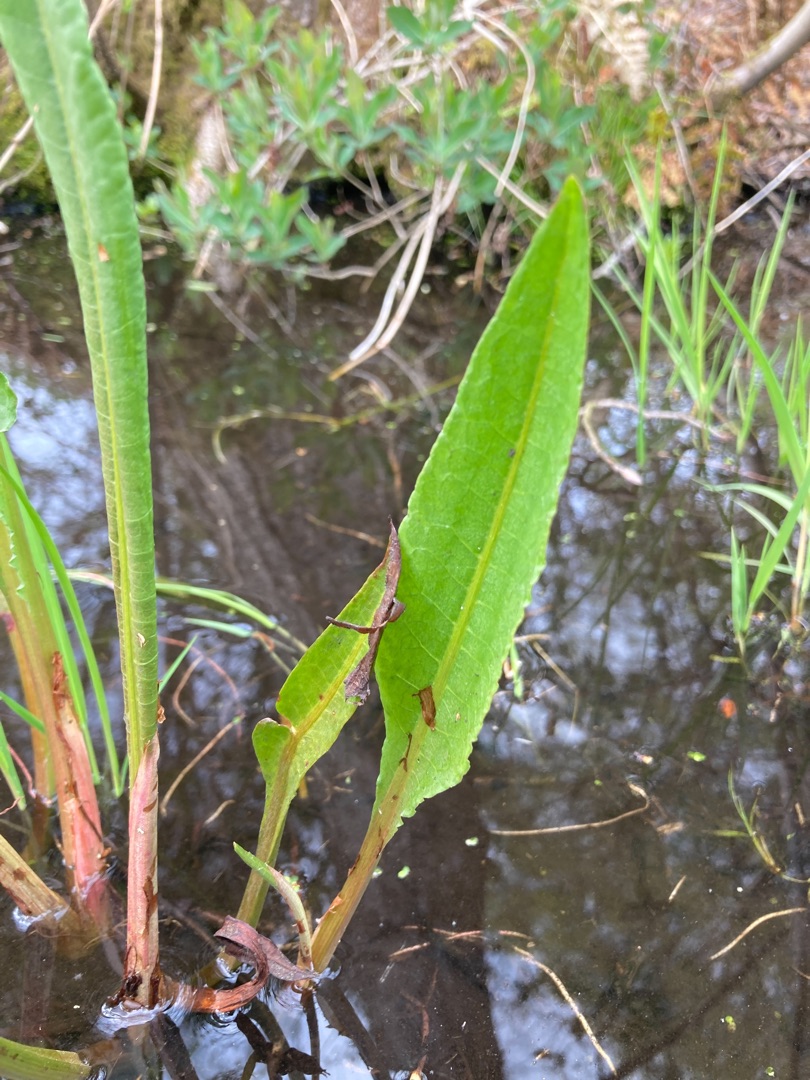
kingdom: Plantae
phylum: Tracheophyta
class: Magnoliopsida
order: Caryophyllales
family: Polygonaceae
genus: Rumex
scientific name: Rumex hydrolapathum
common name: Vand-skræppe
